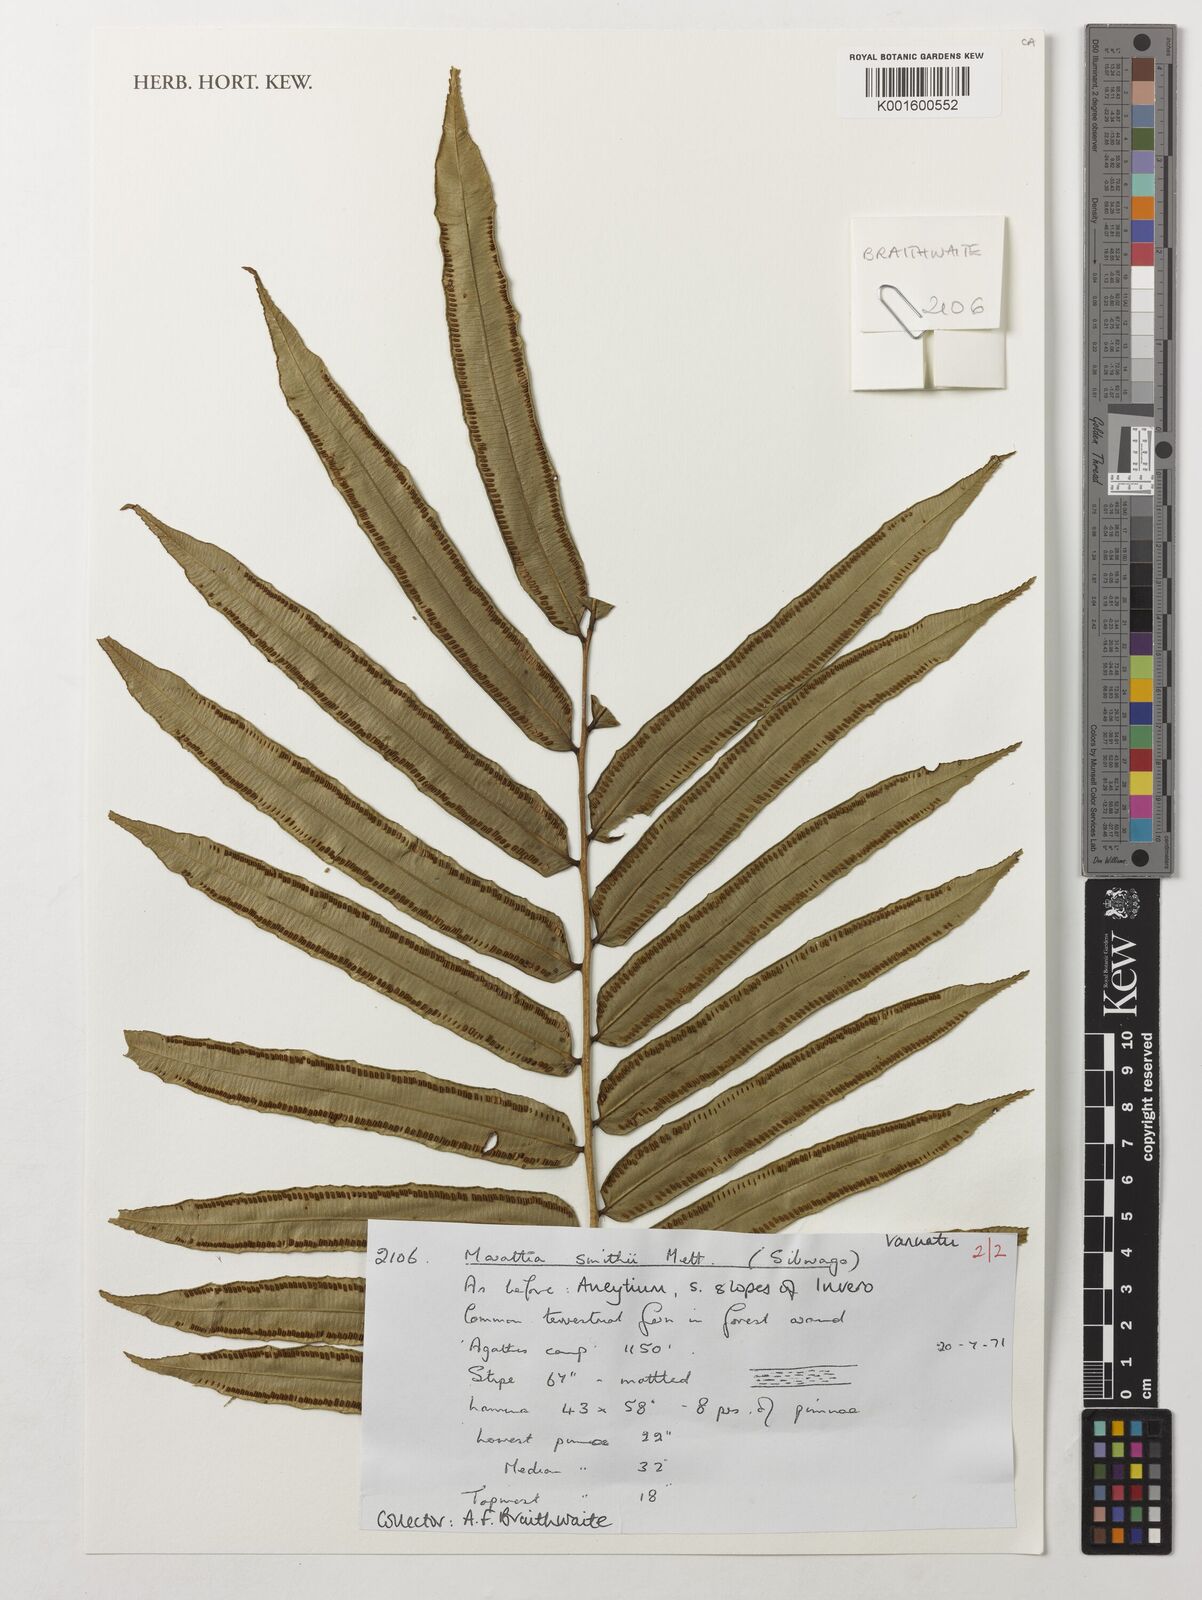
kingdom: Plantae
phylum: Tracheophyta
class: Polypodiopsida
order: Marattiales
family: Marattiaceae
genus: Ptisana
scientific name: Ptisana smithii
